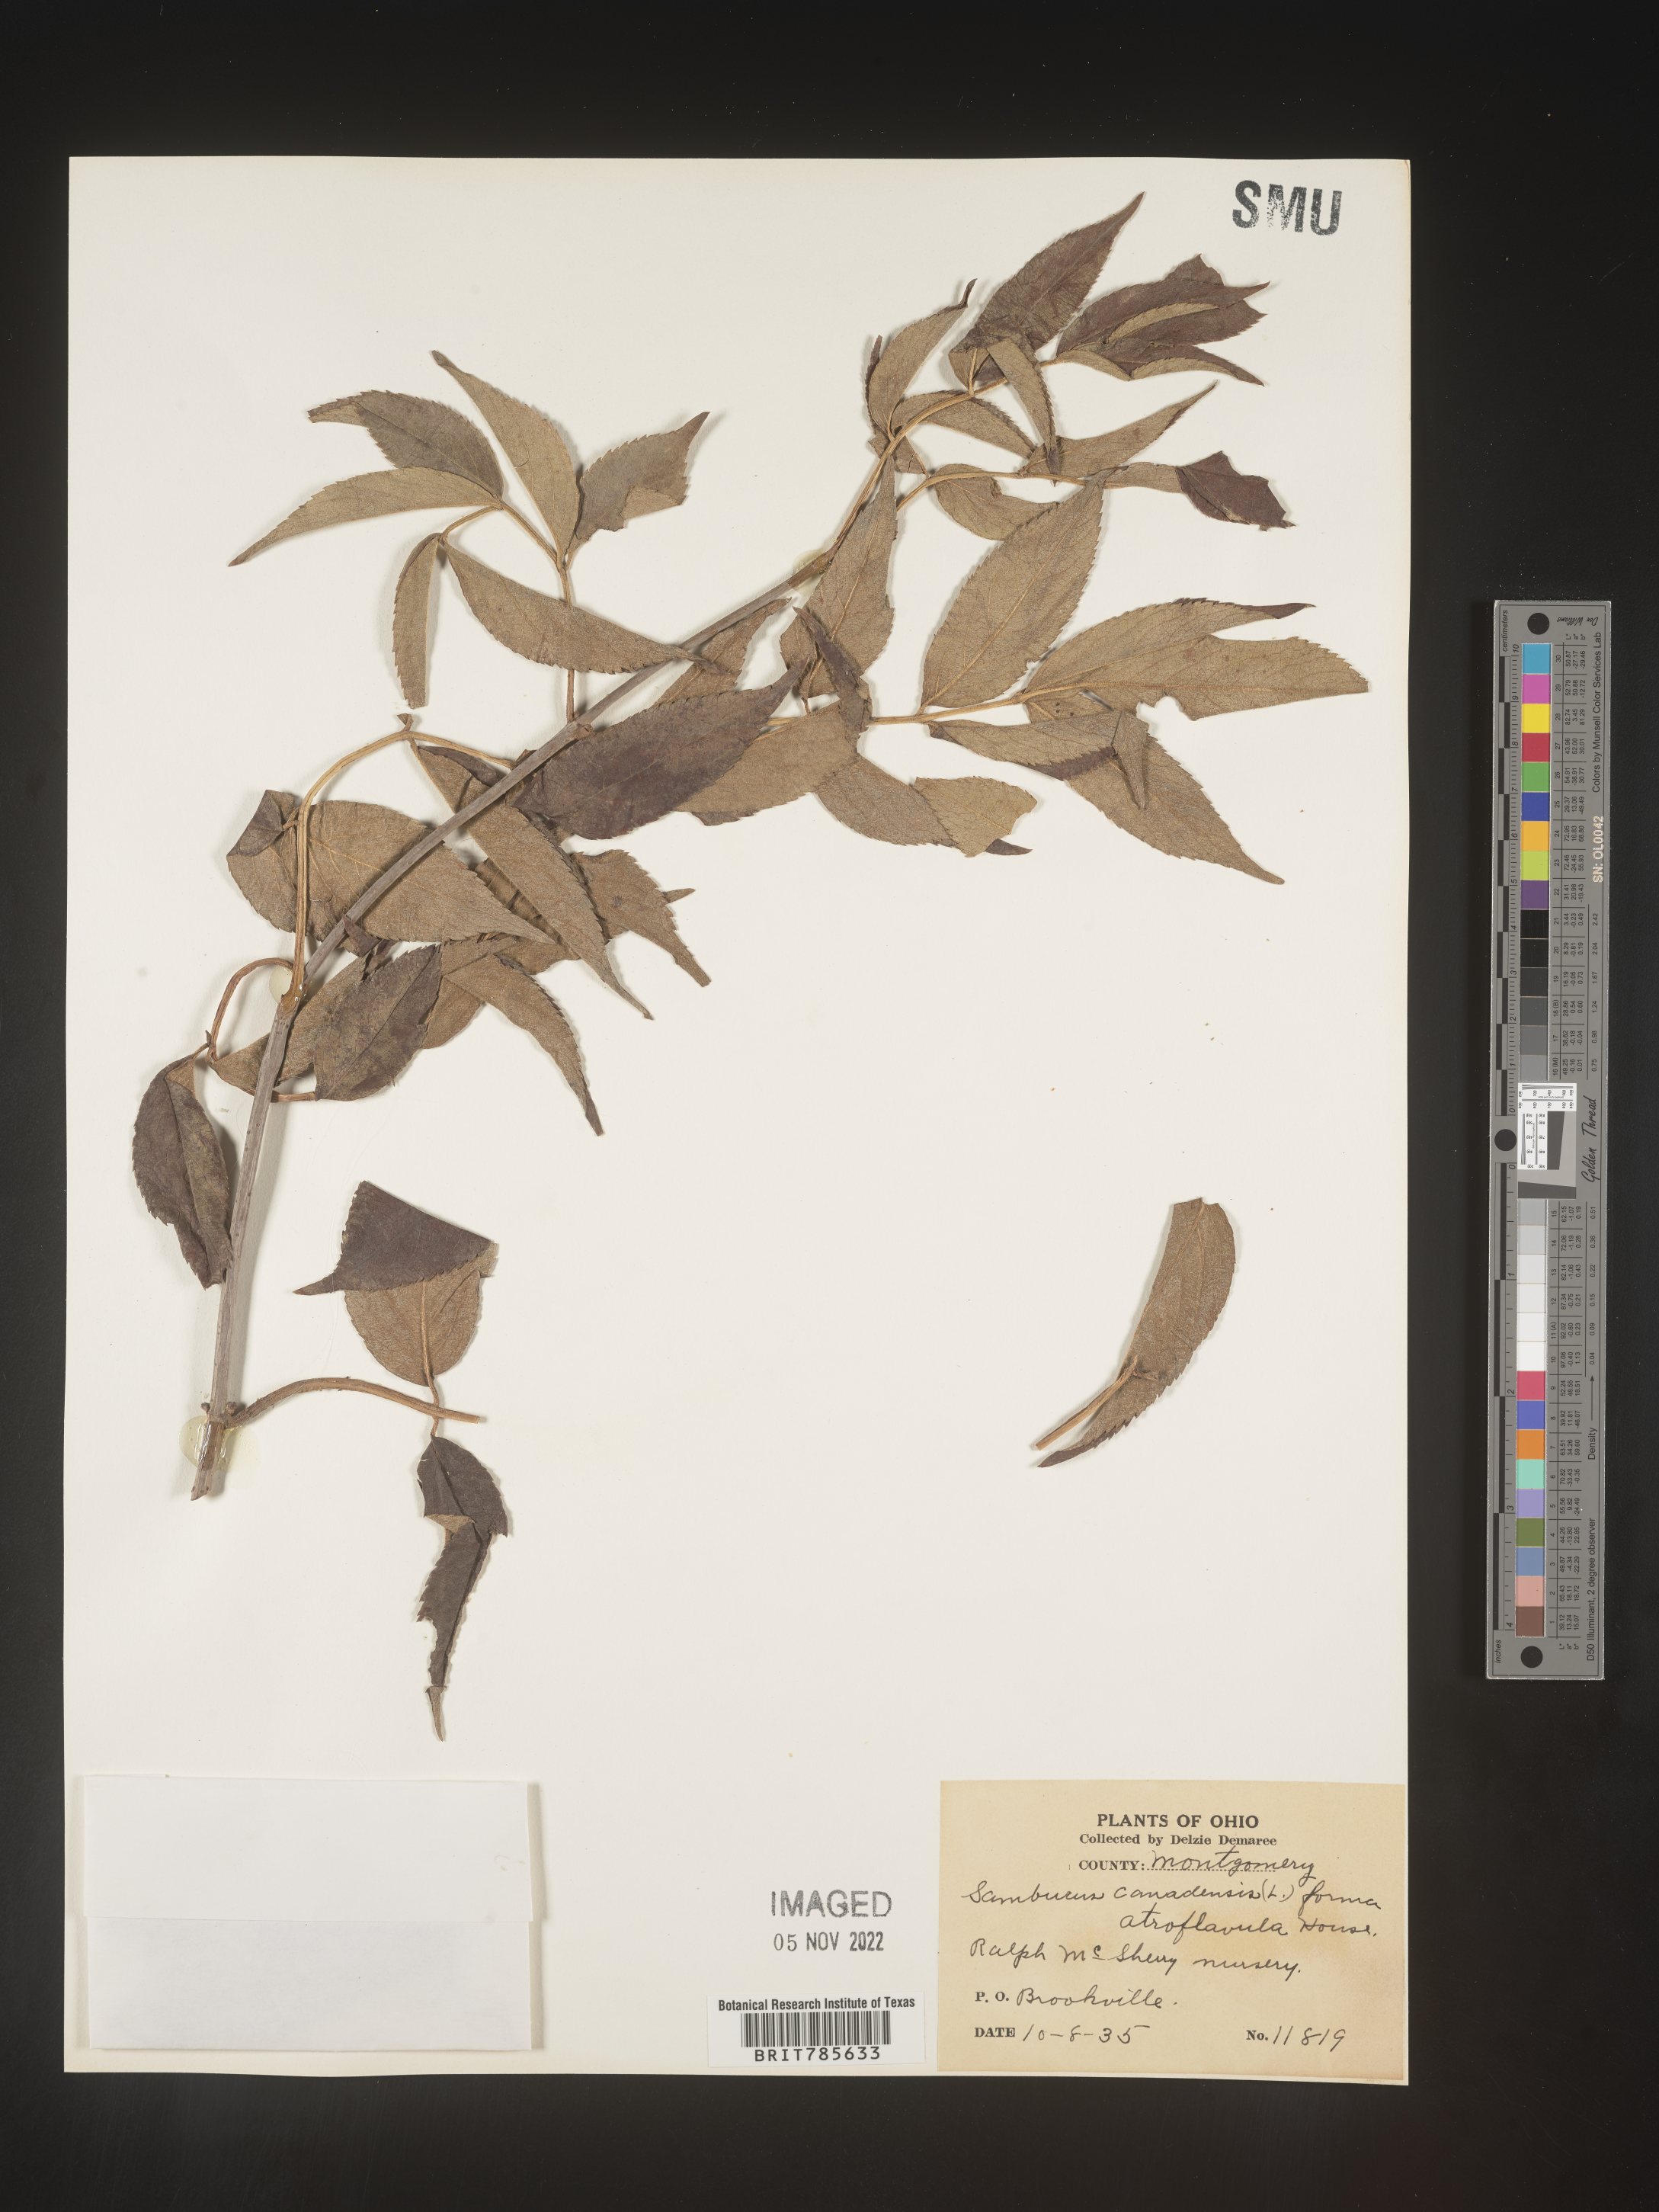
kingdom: Plantae
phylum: Tracheophyta
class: Magnoliopsida
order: Dipsacales
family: Viburnaceae
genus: Sambucus
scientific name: Sambucus canadensis
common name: American elder
